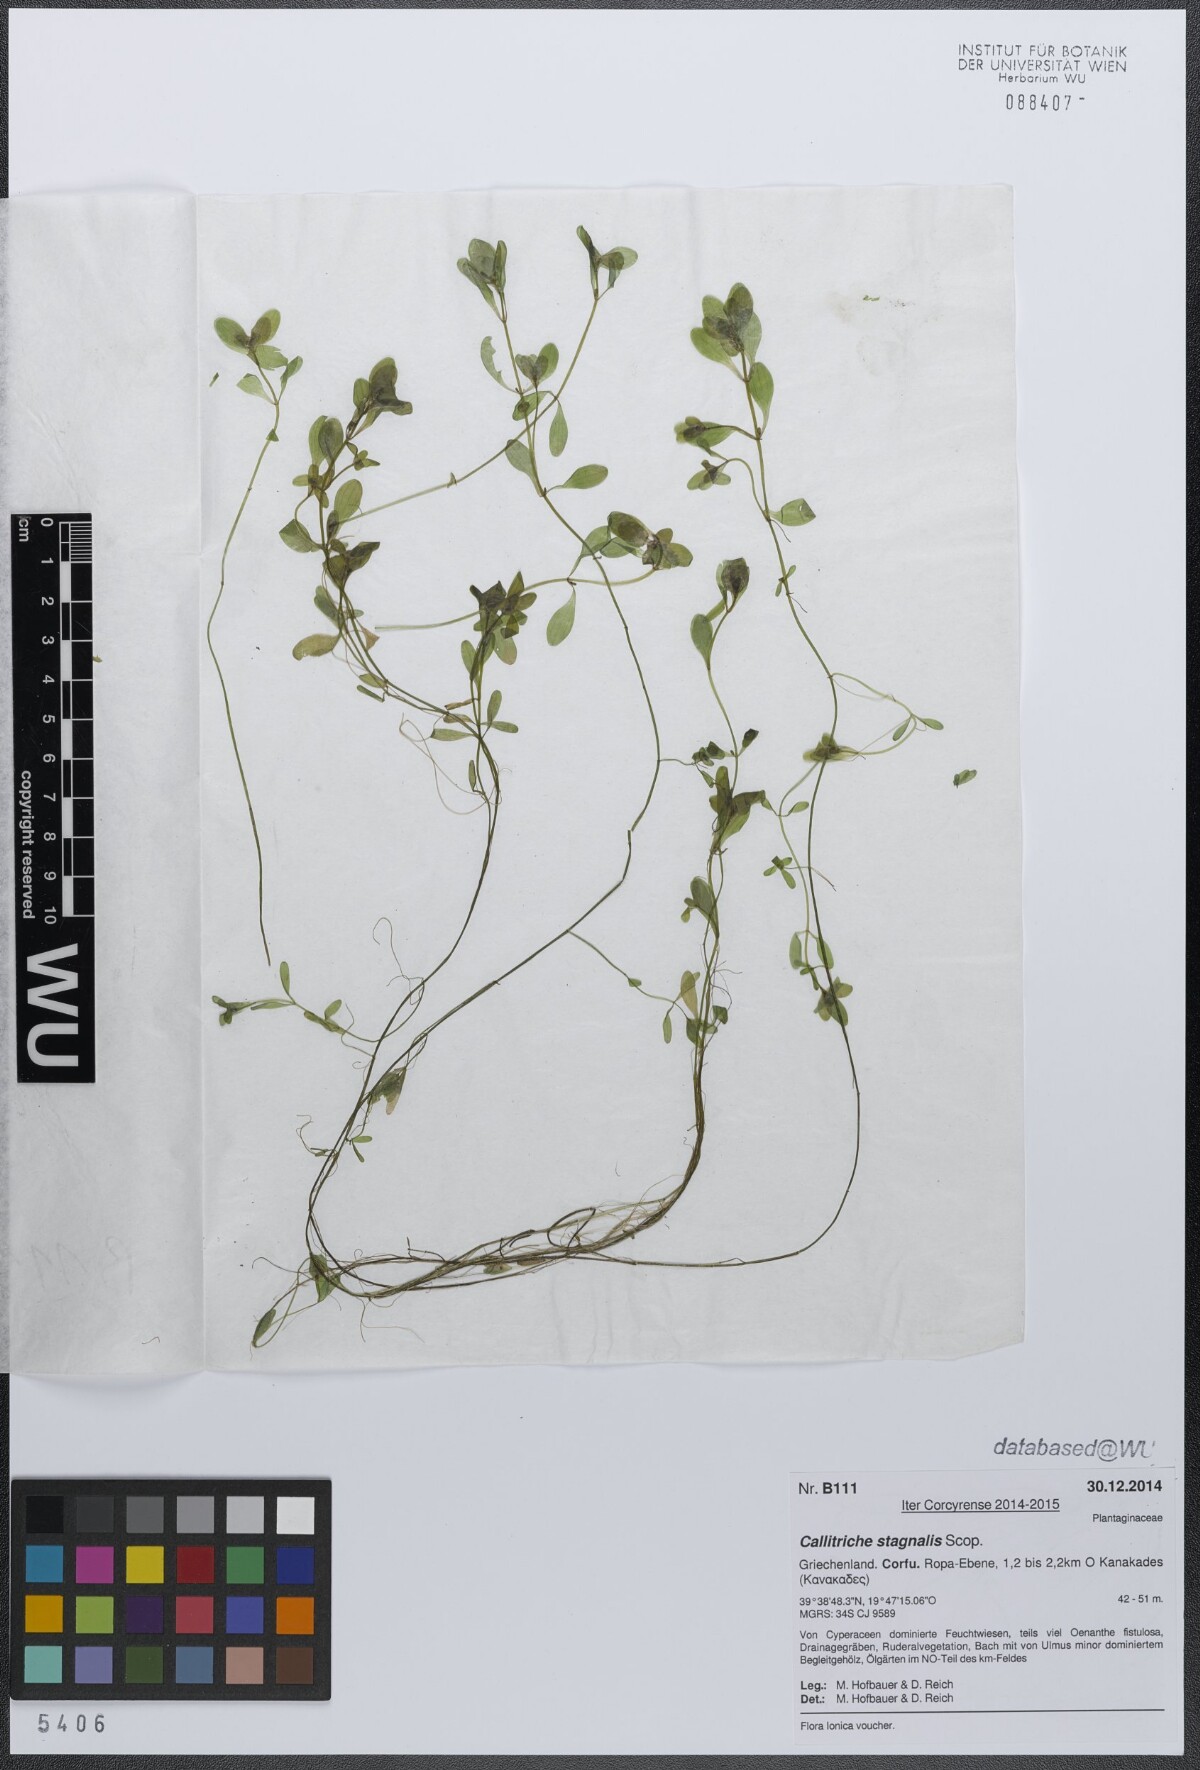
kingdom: Plantae
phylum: Tracheophyta
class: Magnoliopsida
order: Lamiales
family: Plantaginaceae
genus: Callitriche
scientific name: Callitriche stagnalis
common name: Common water-starwort
